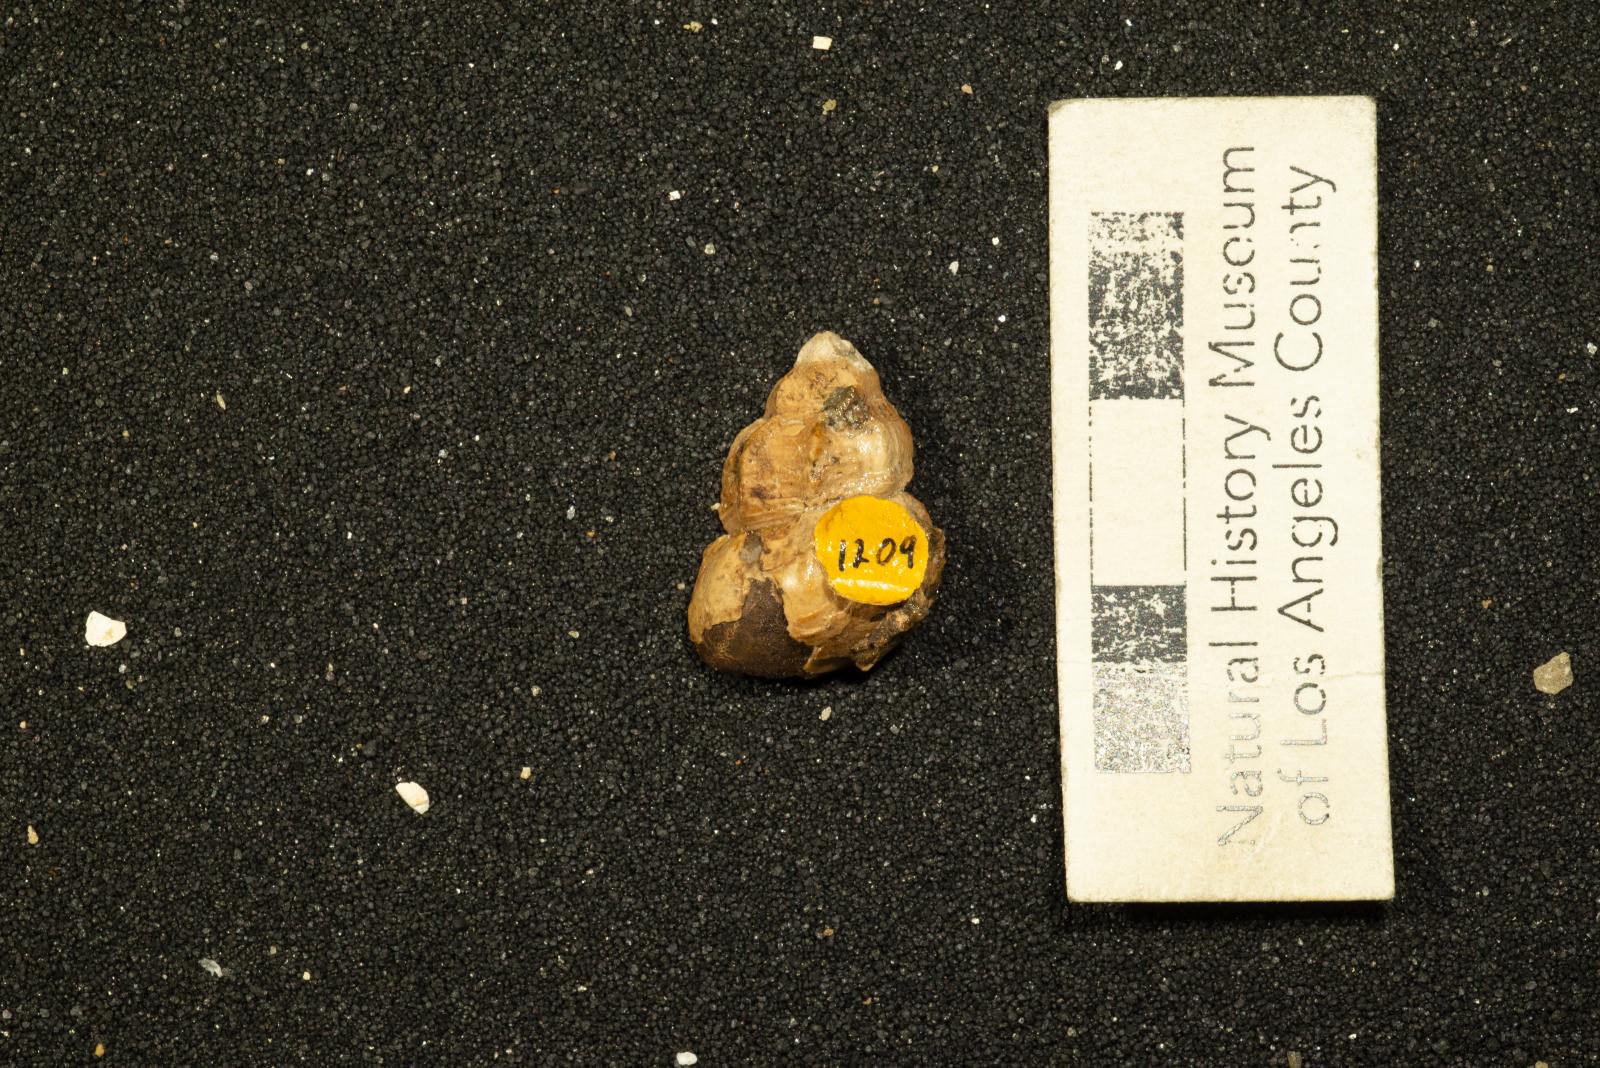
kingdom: Animalia
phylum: Mollusca
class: Gastropoda
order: Neogastropoda
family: Buccinidae
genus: Eripachya
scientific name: Eripachya vaccina
